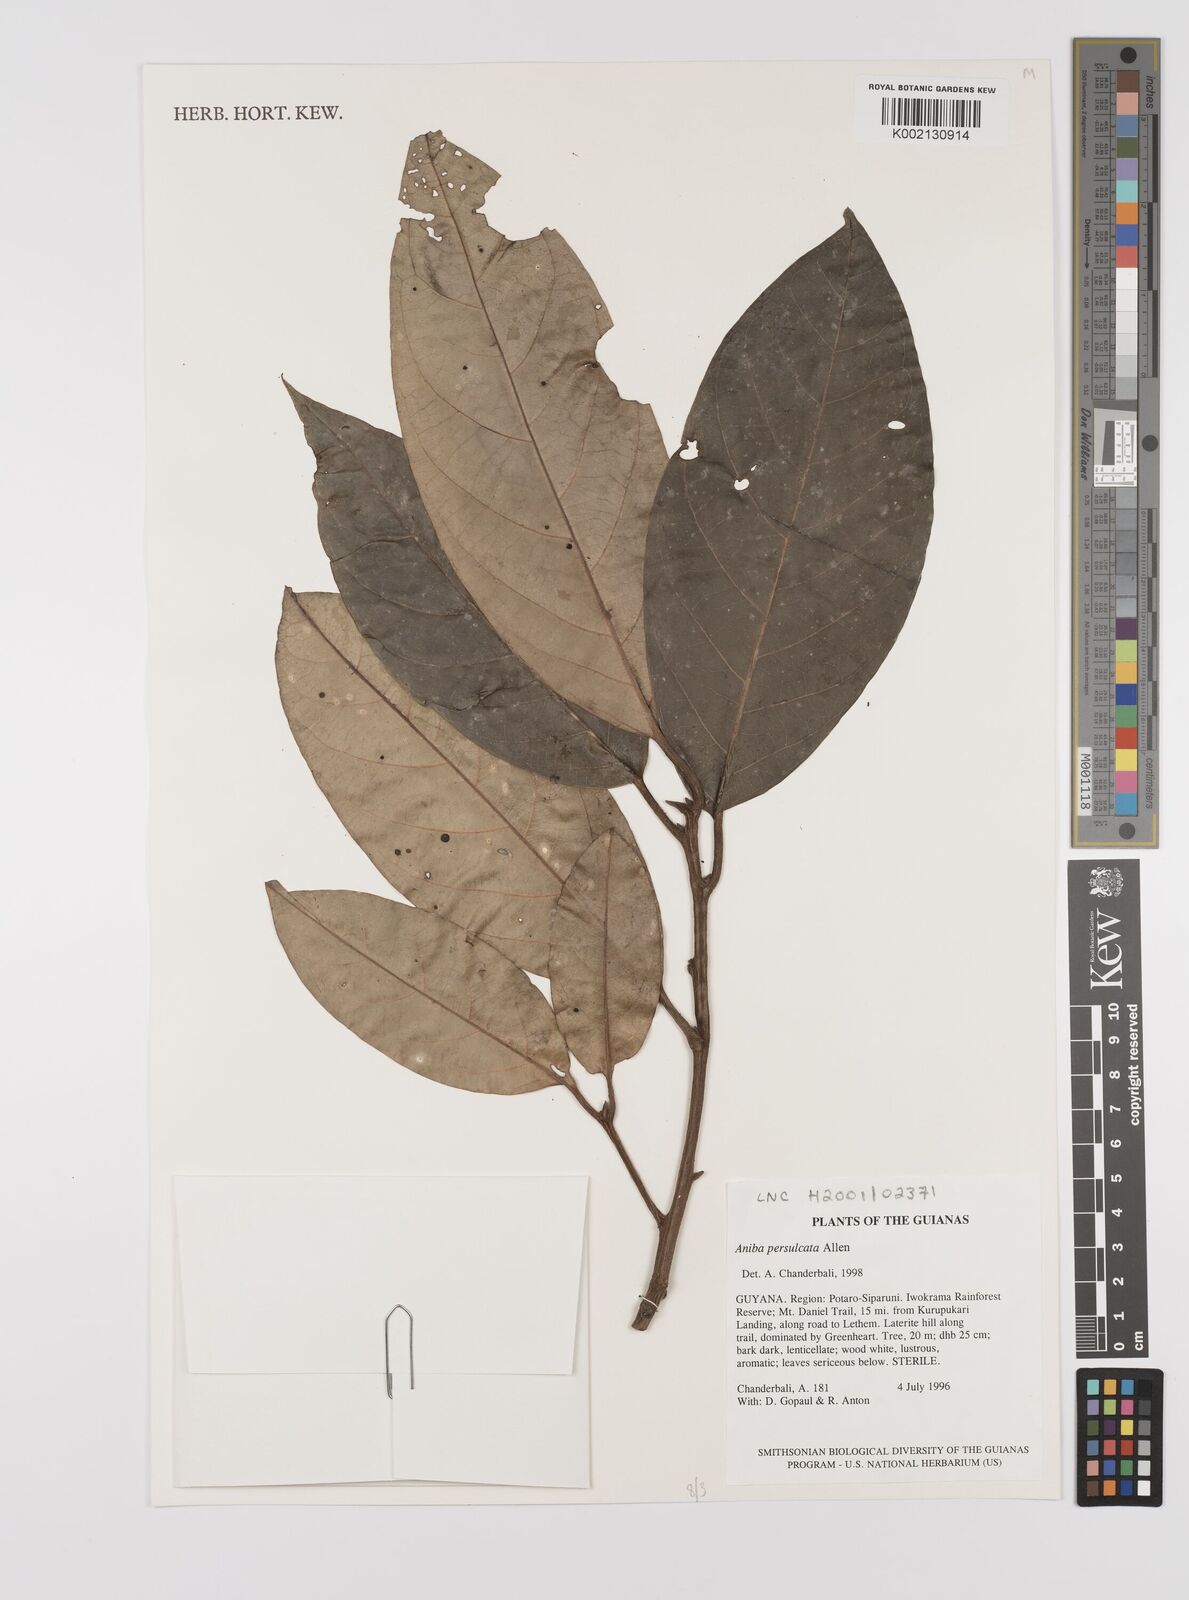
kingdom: Plantae
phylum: Tracheophyta
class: Magnoliopsida
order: Laurales
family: Lauraceae
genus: Aniba
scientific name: Aniba
